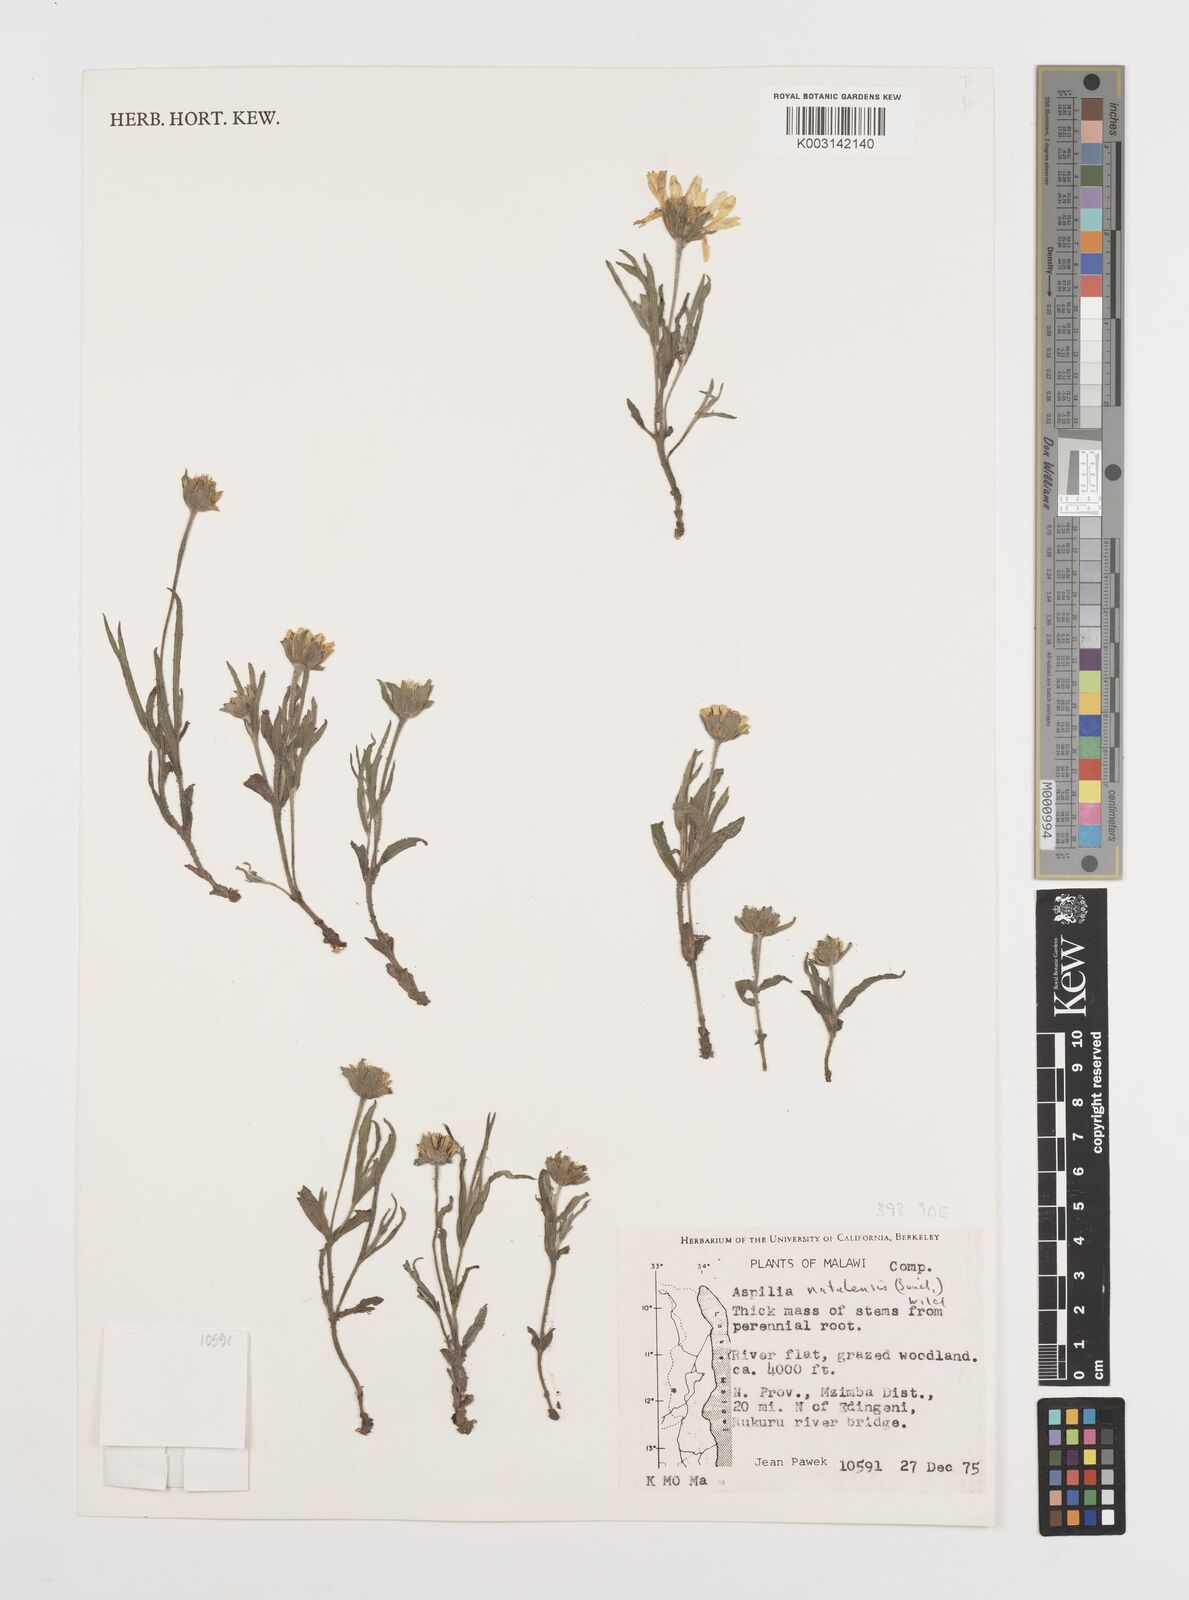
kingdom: Plantae
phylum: Tracheophyta
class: Magnoliopsida
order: Asterales
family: Asteraceae
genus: Aspilia
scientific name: Aspilia natalensis
